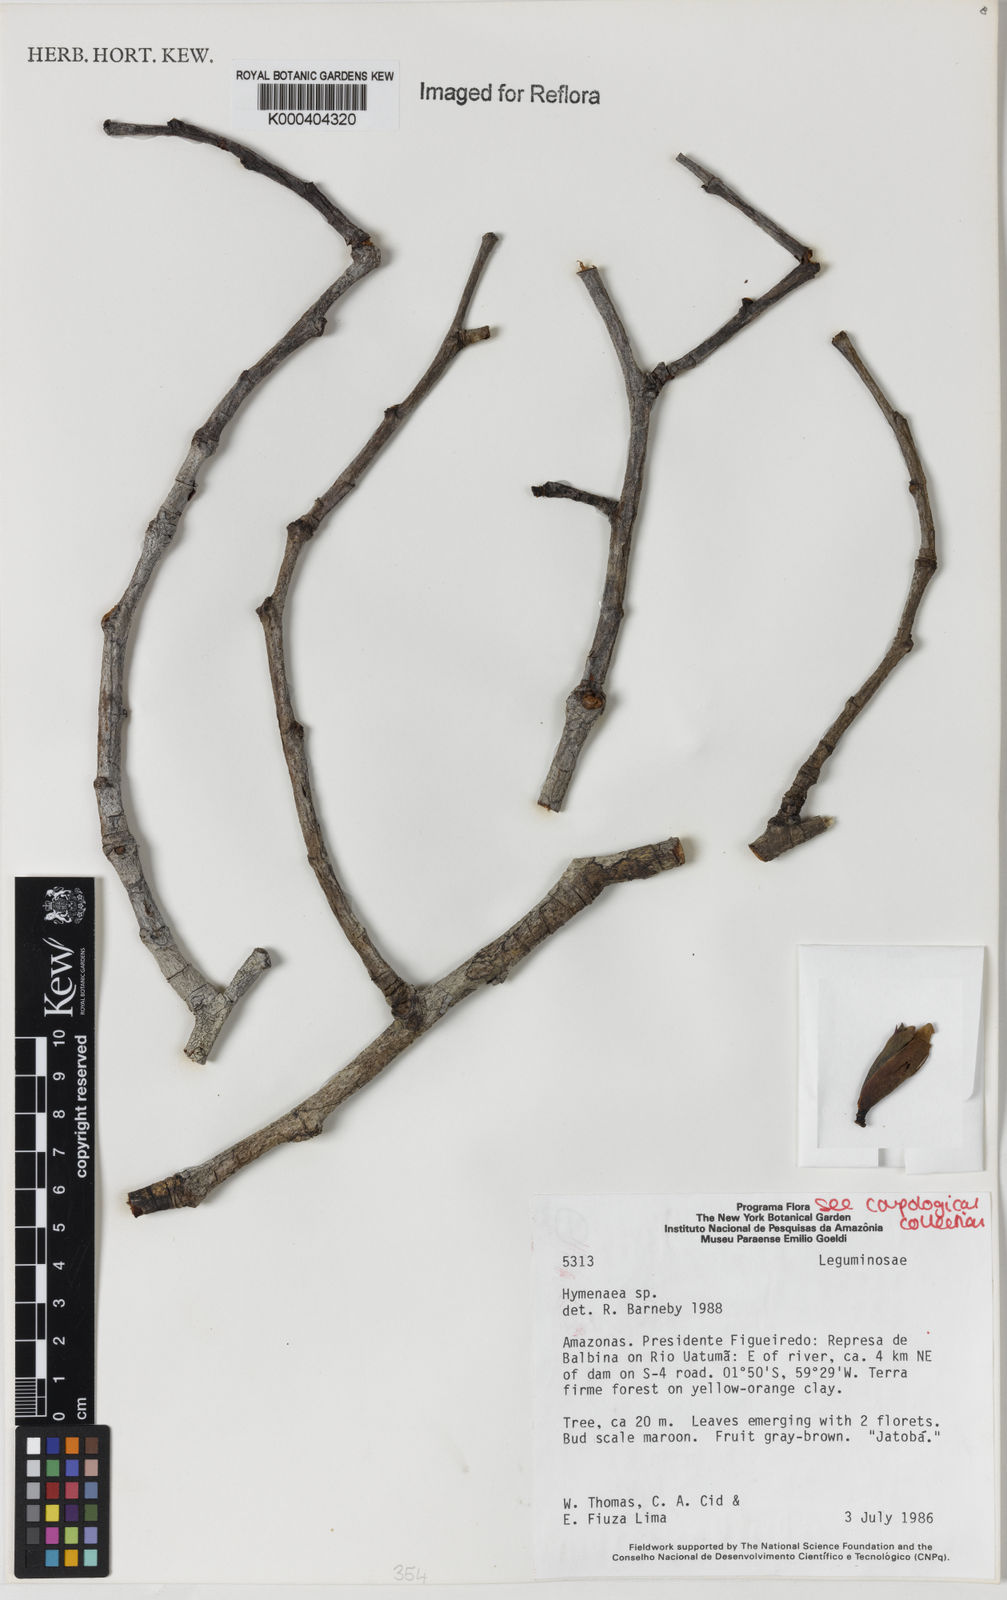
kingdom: Plantae
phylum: Tracheophyta
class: Magnoliopsida
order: Fabales
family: Fabaceae
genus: Hymenaea
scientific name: Hymenaea
